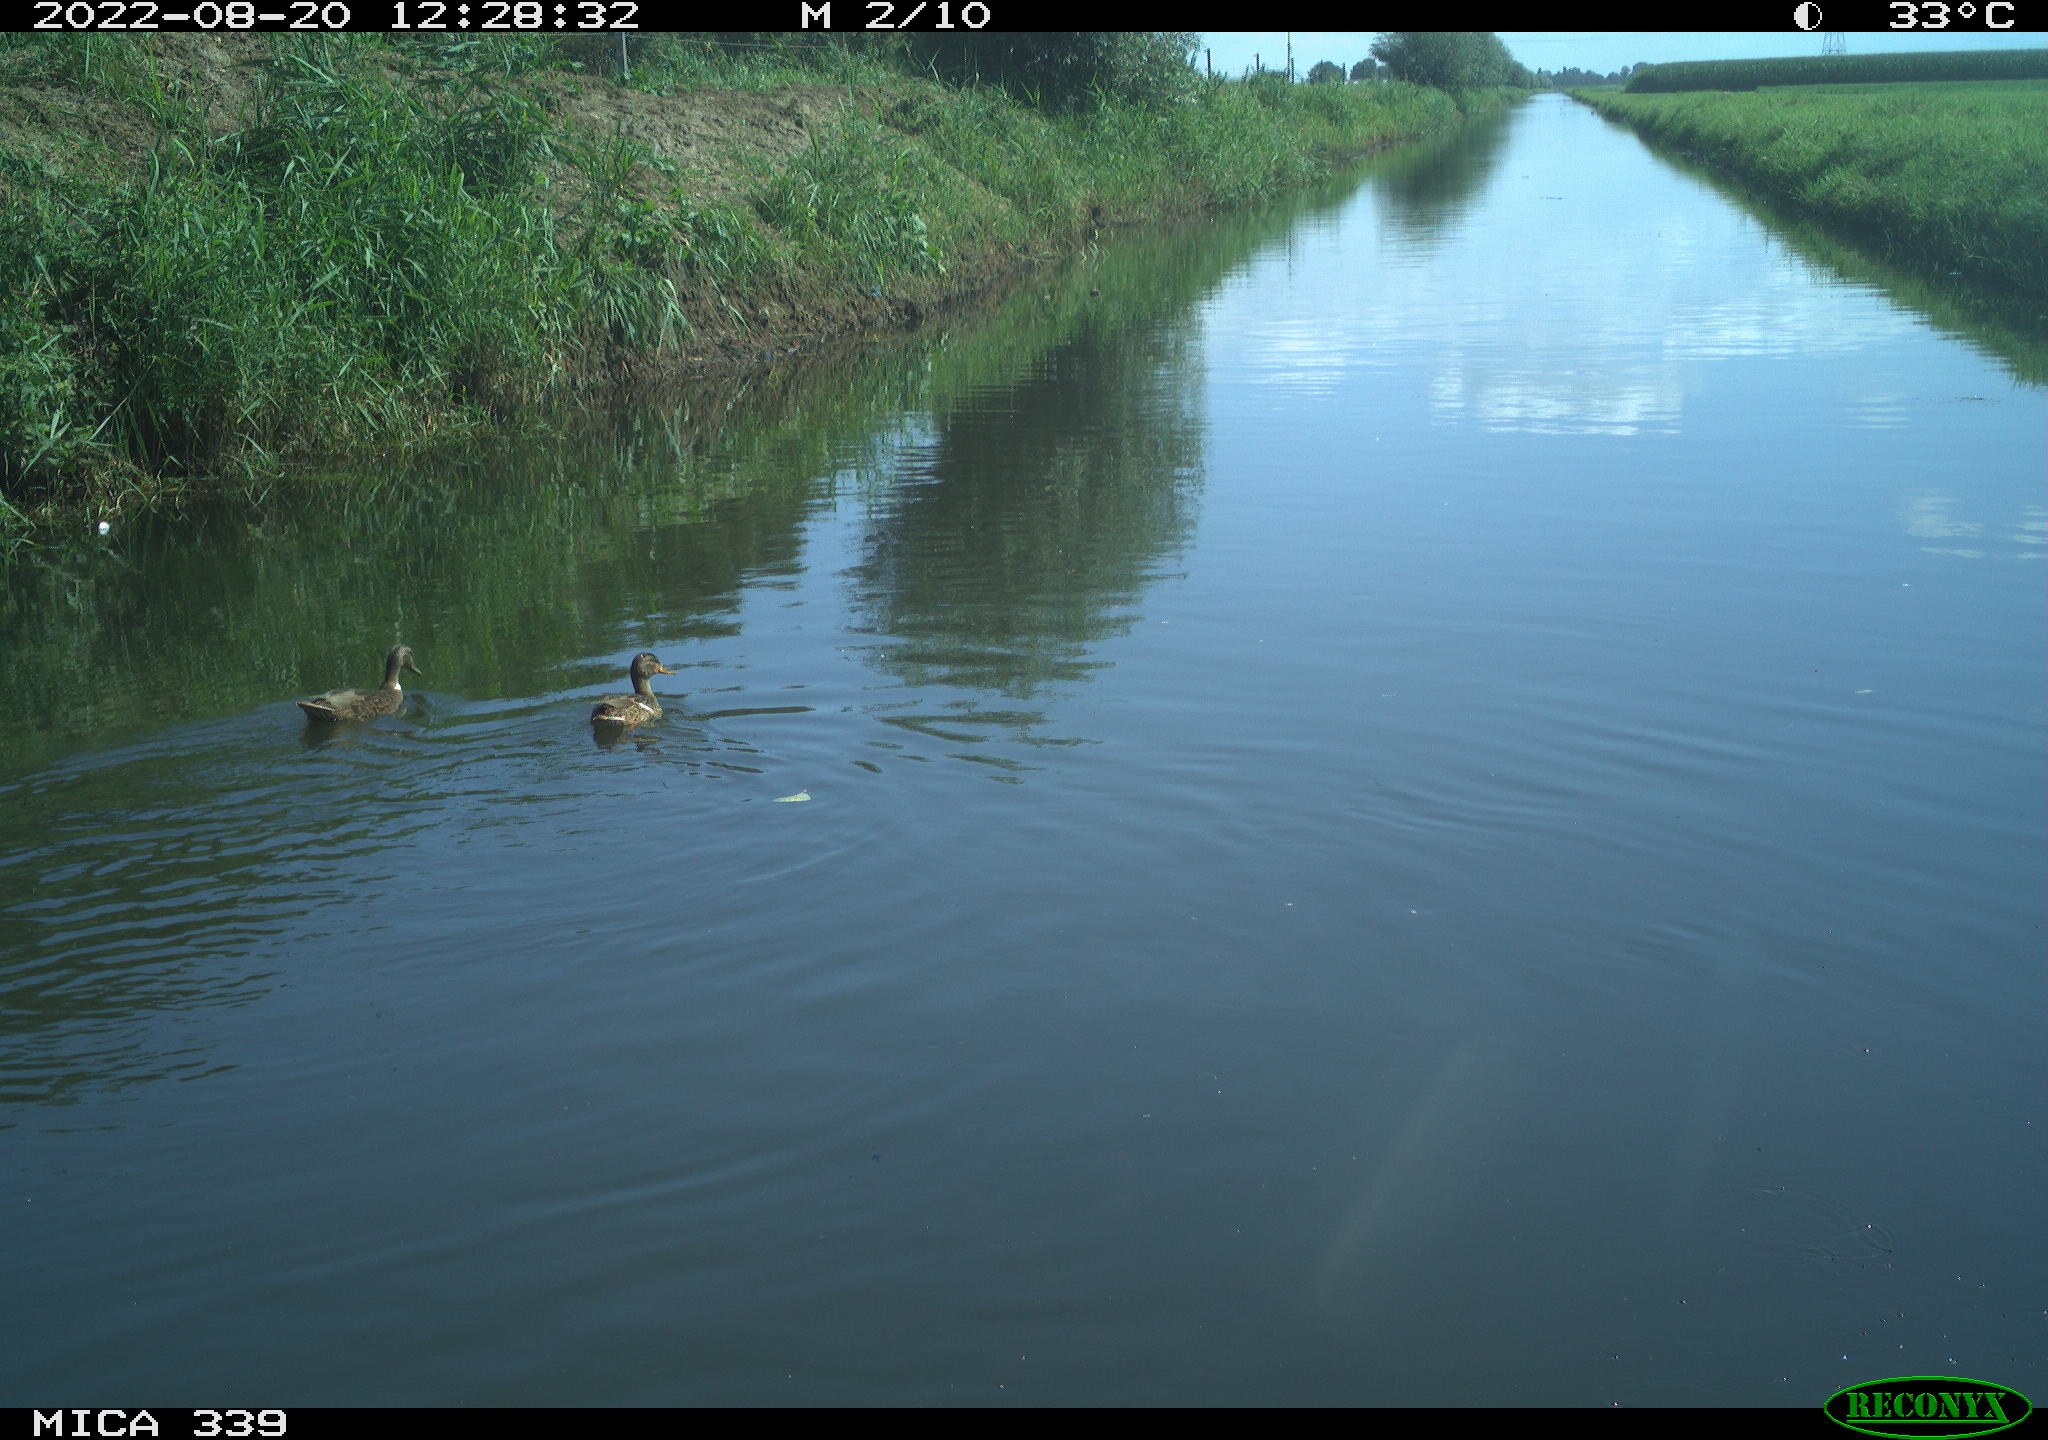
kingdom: Animalia
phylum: Chordata
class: Aves
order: Anseriformes
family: Anatidae
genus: Anas
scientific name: Anas platyrhynchos
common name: Mallard
